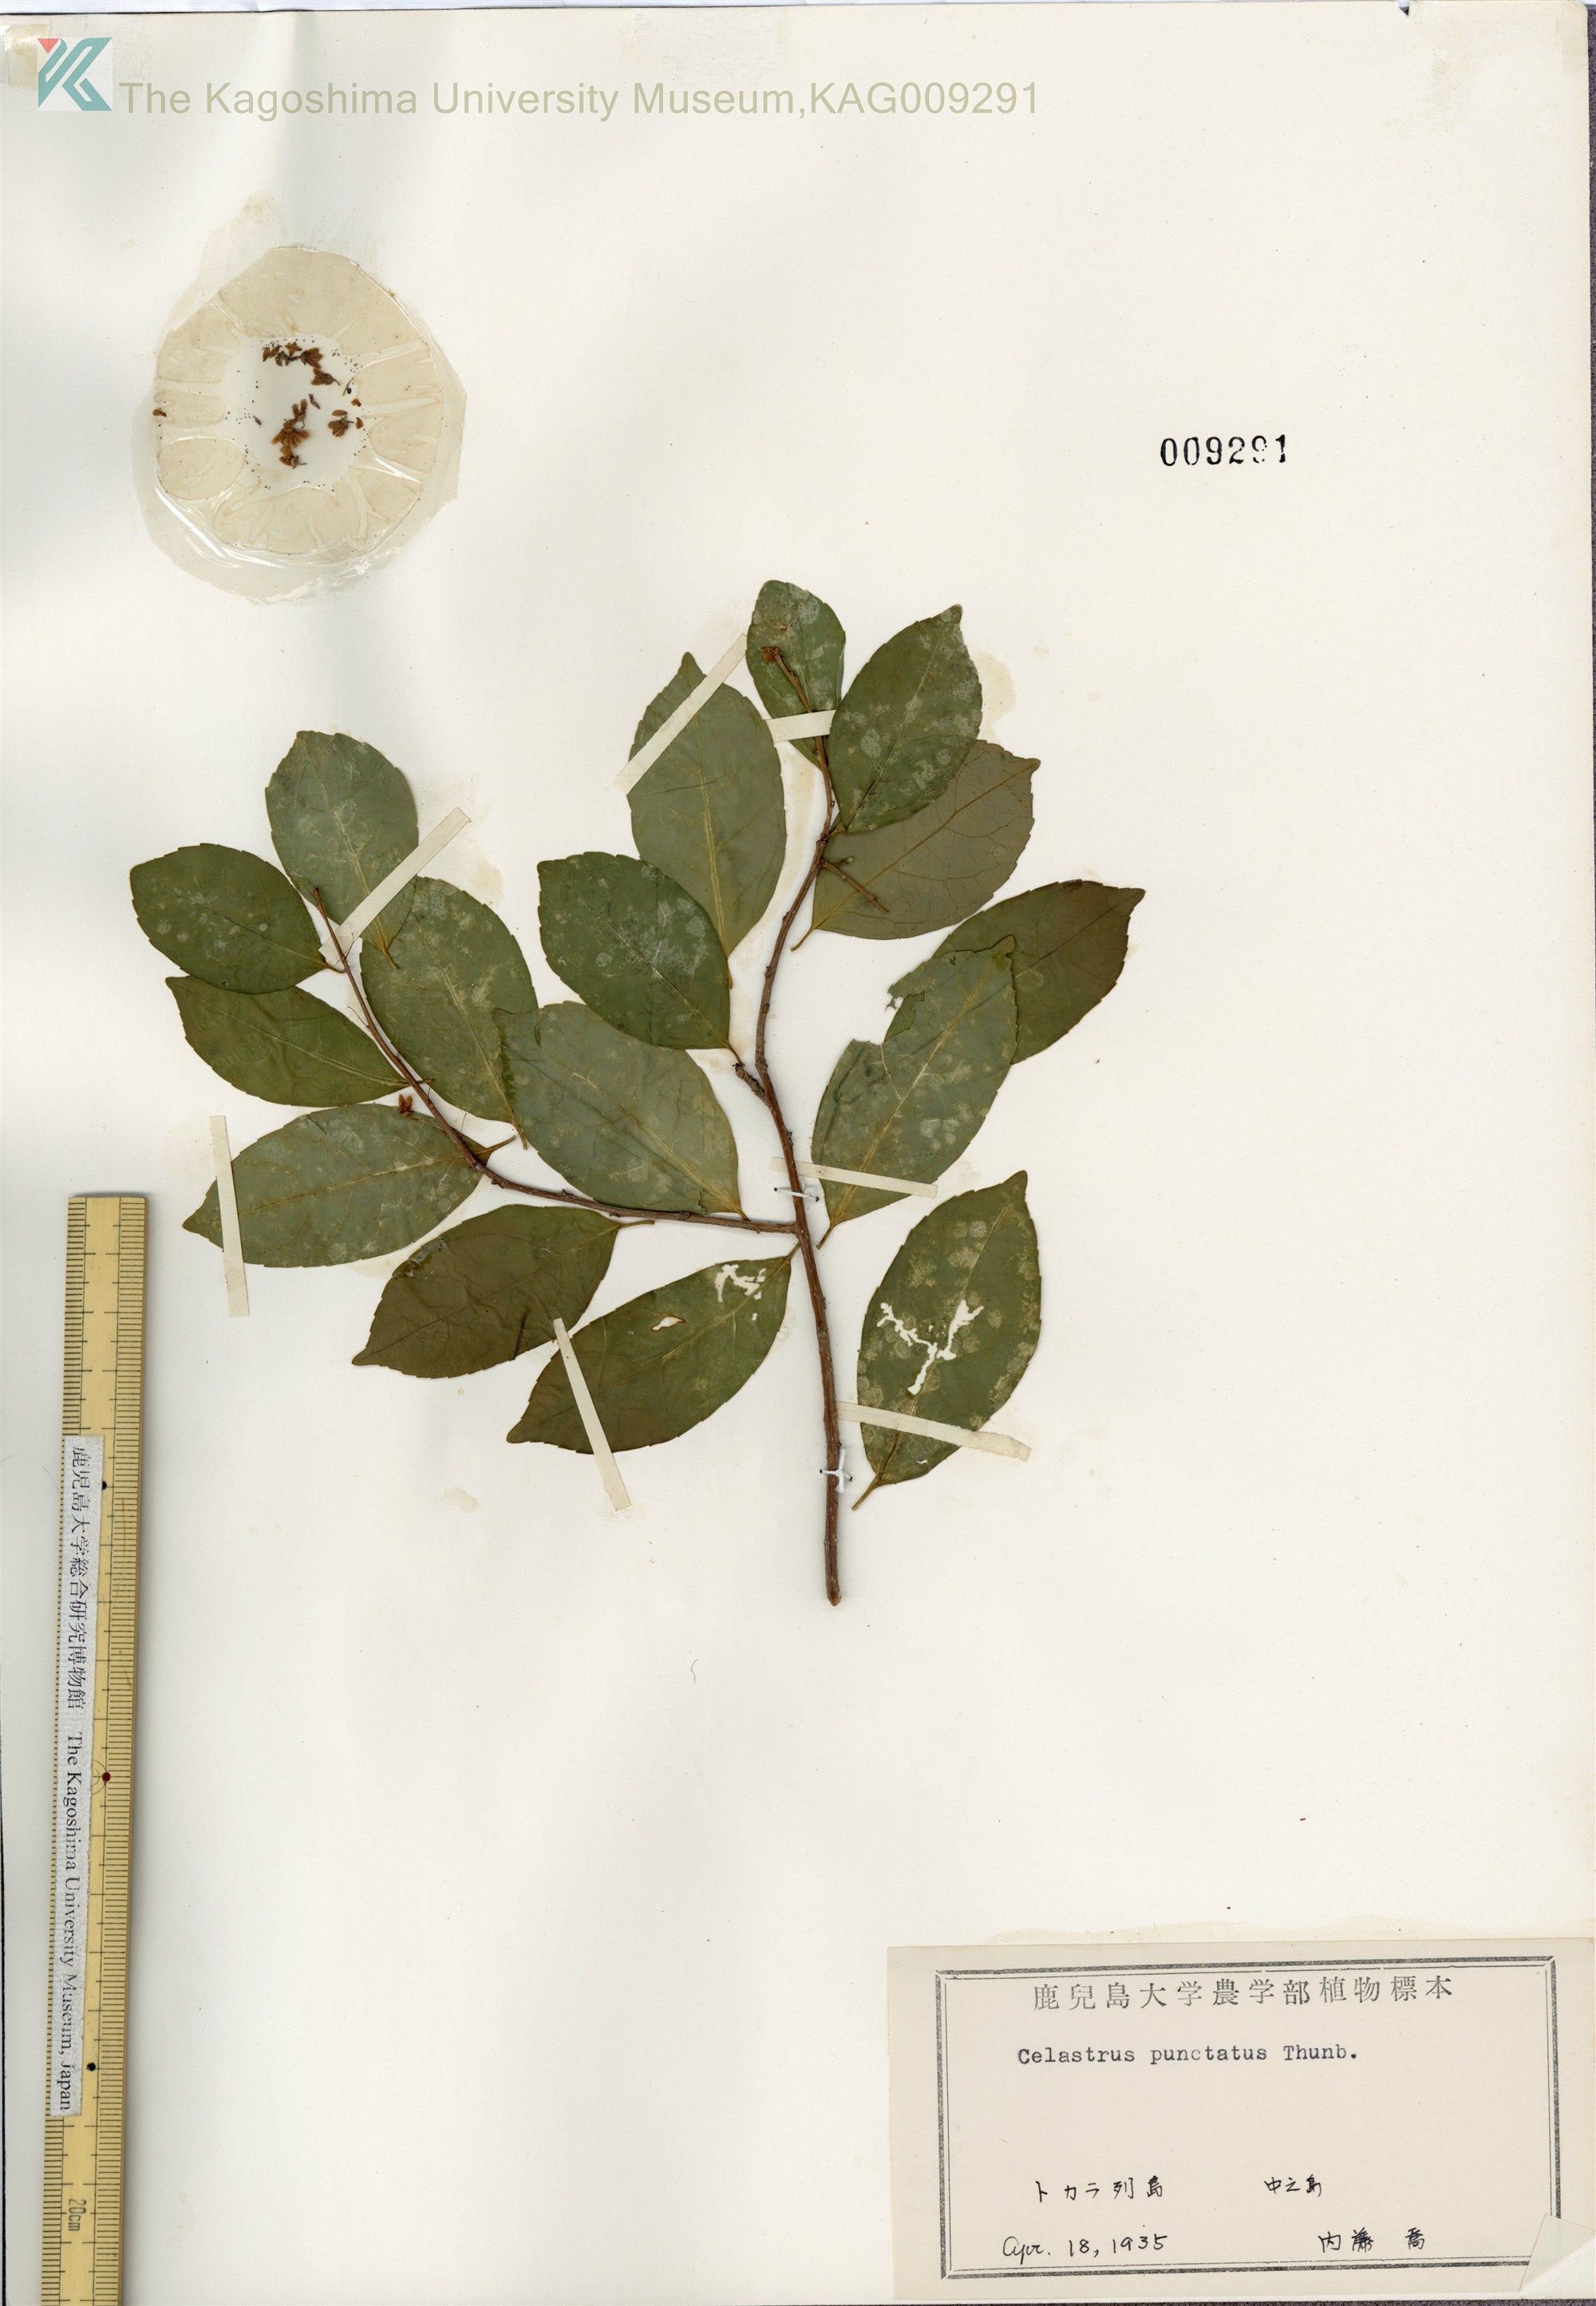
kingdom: Plantae
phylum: Tracheophyta
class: Magnoliopsida
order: Celastrales
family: Celastraceae
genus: Celastrus
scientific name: Celastrus punctatus
